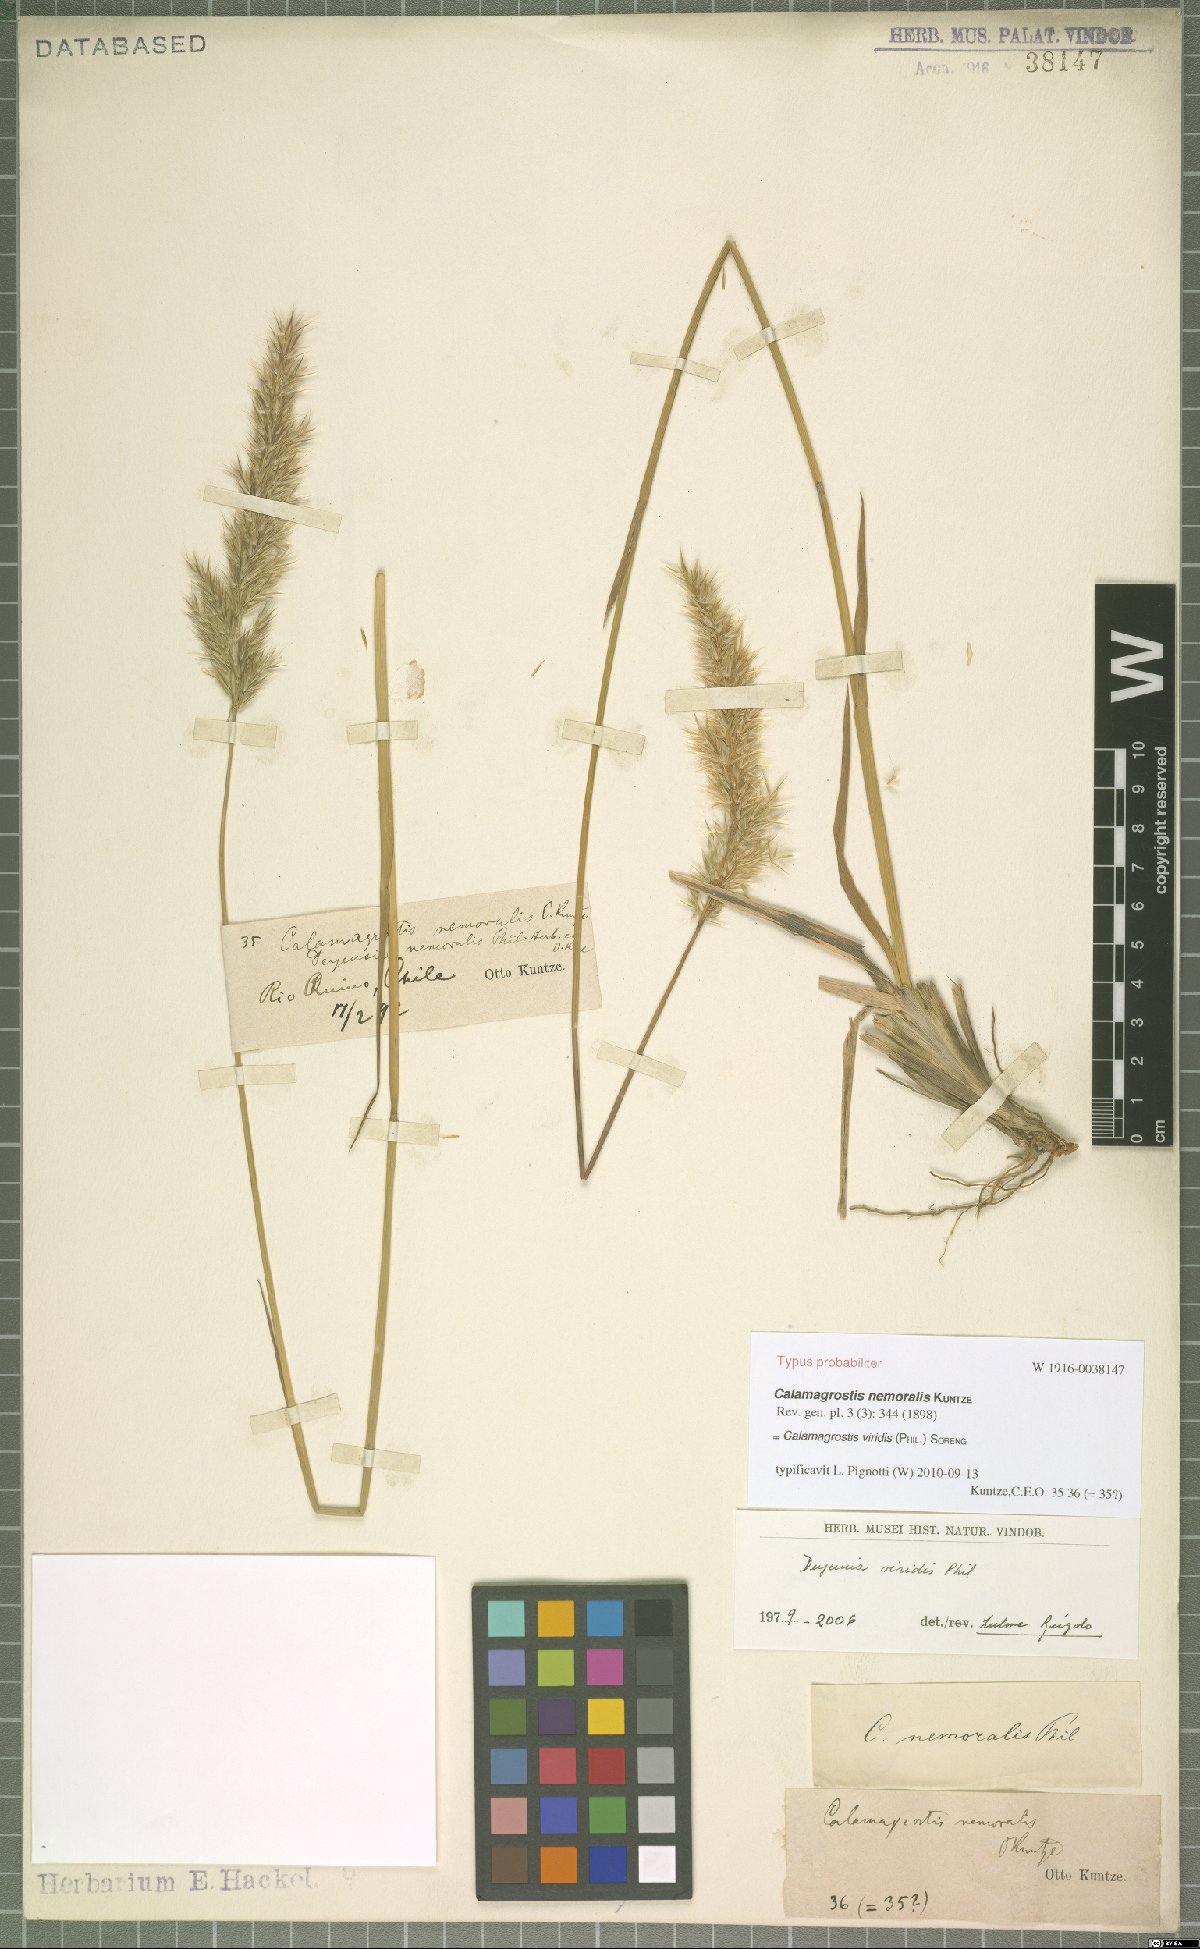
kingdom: Plantae
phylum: Tracheophyta
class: Liliopsida
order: Poales
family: Poaceae
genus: Cinnagrostis
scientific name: Cinnagrostis viridis
